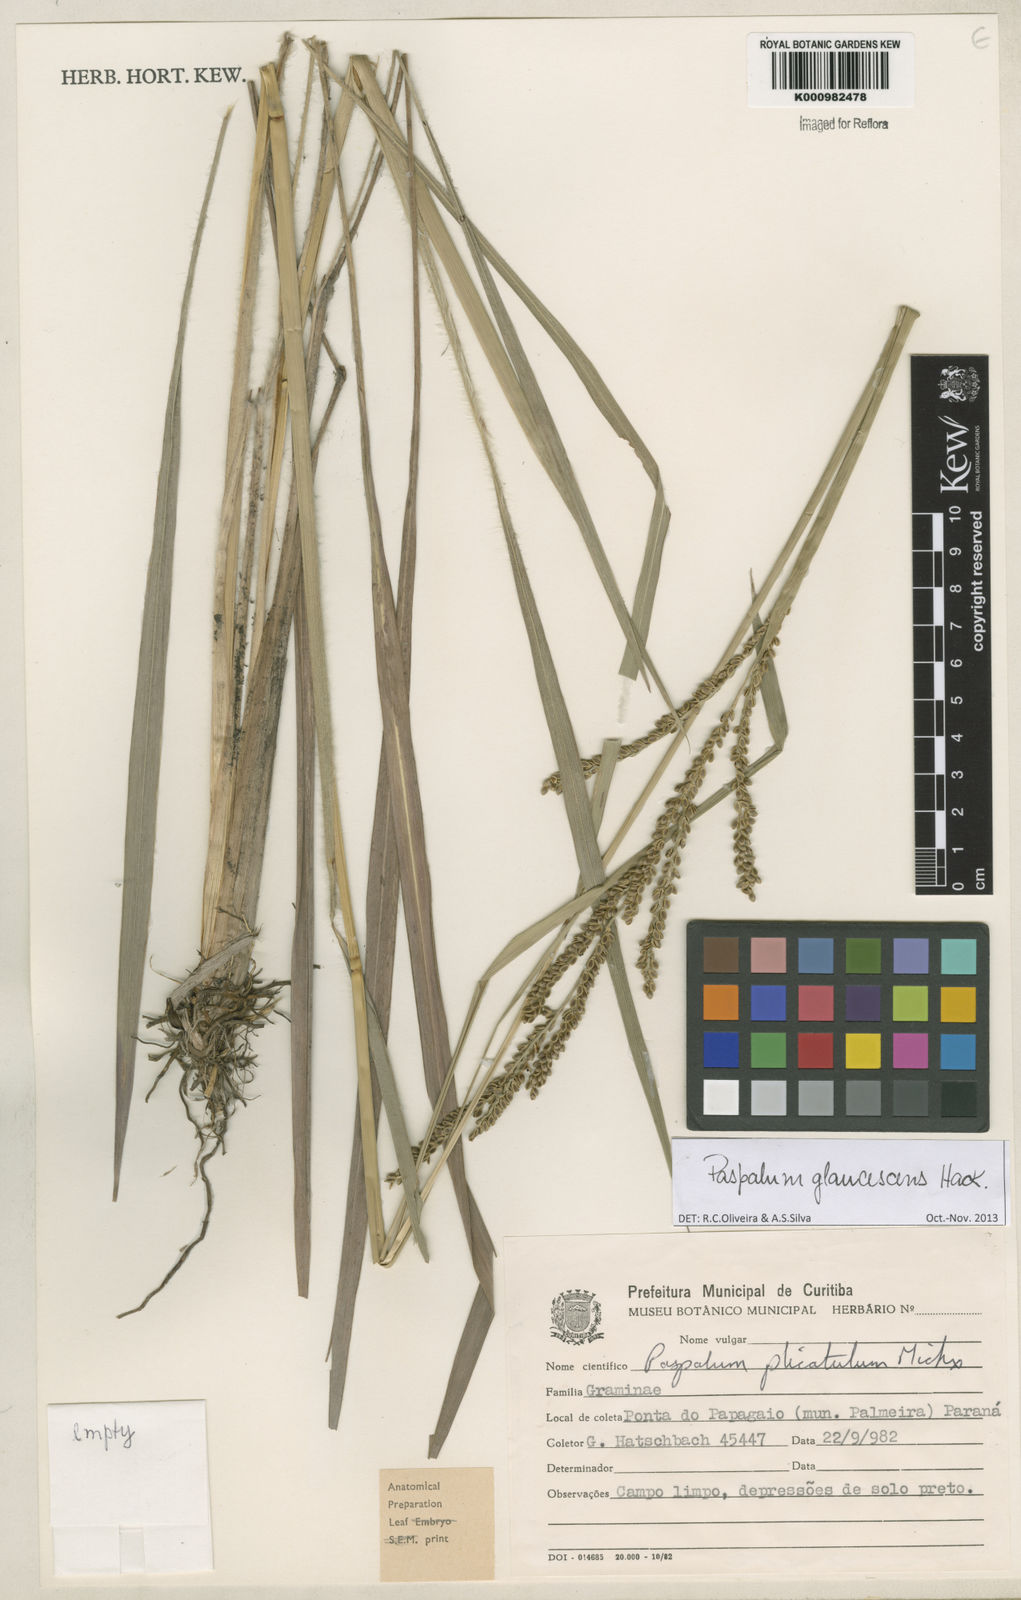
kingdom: Plantae
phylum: Tracheophyta
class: Liliopsida
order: Poales
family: Poaceae
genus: Paspalum
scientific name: Paspalum glaucescens
